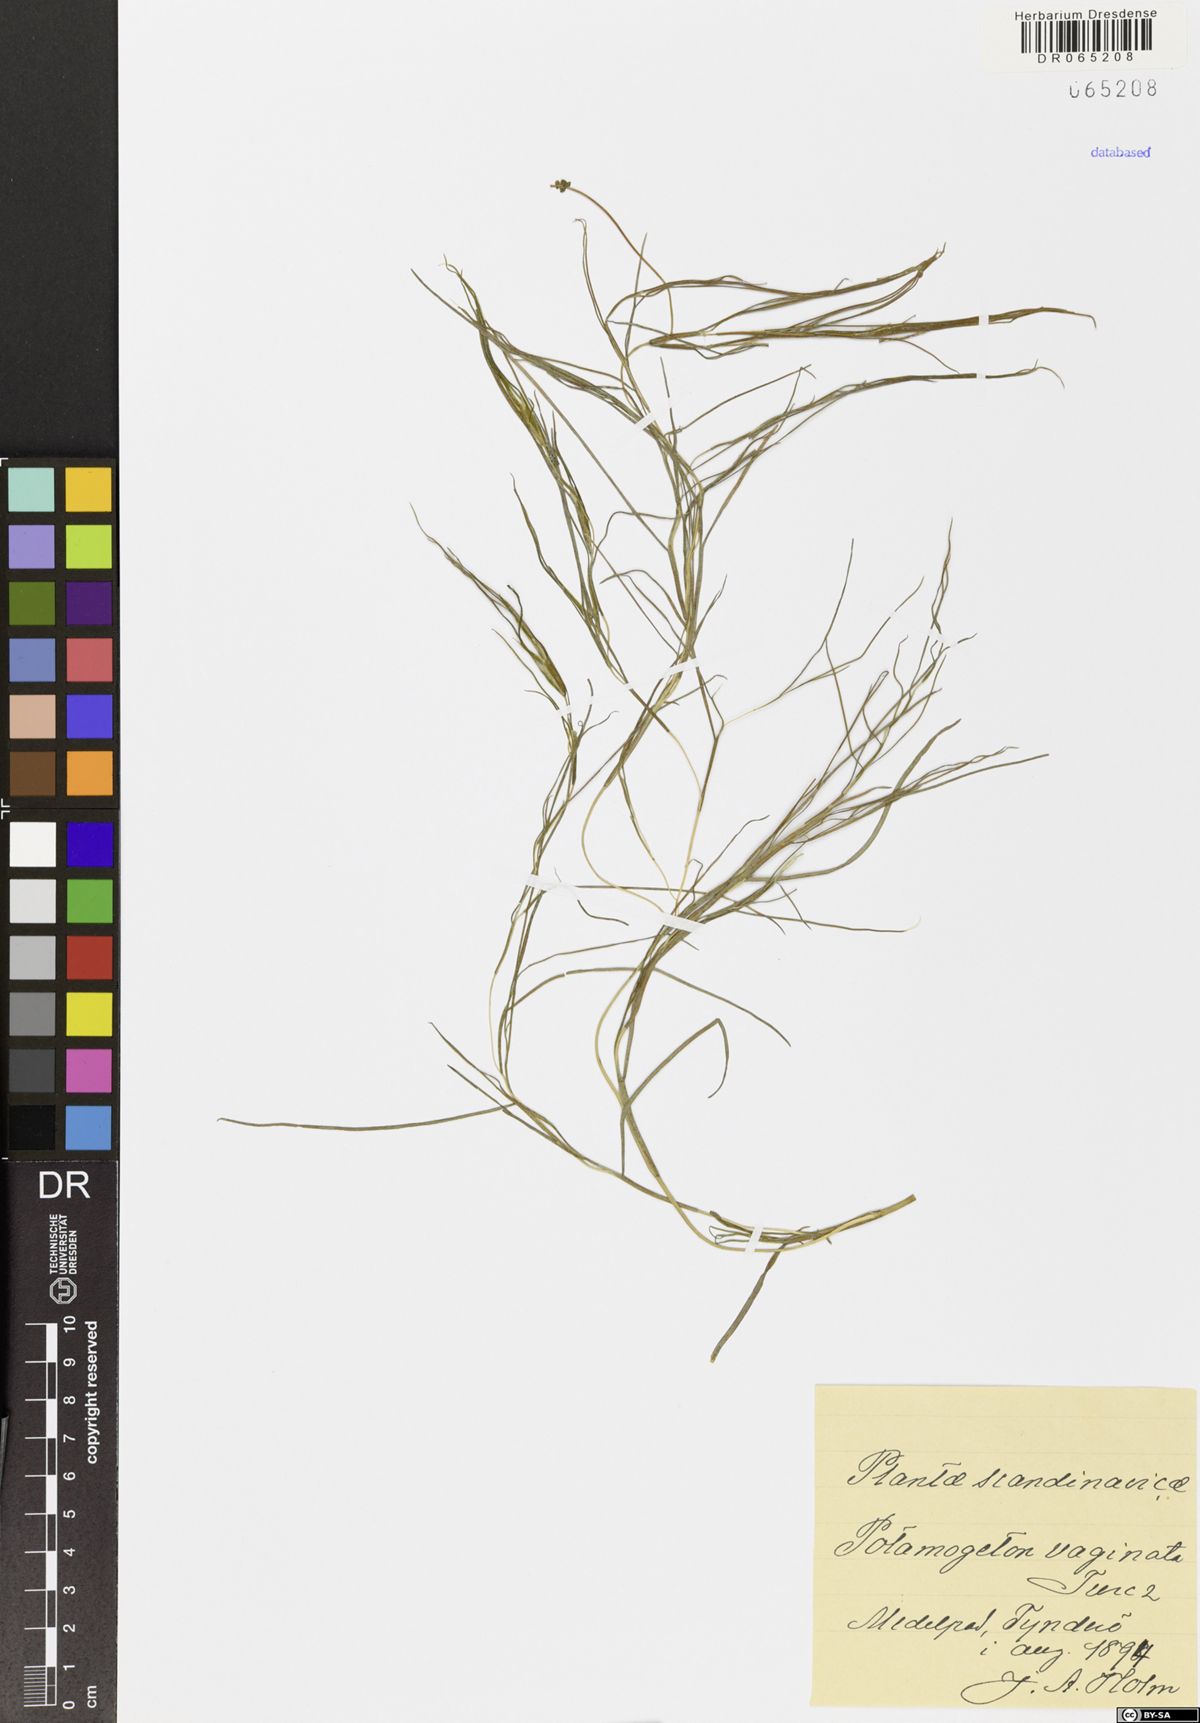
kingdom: Plantae
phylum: Tracheophyta
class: Liliopsida
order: Alismatales
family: Potamogetonaceae
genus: Stuckenia
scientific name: Stuckenia vaginata
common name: Big-sheathed pondweed
